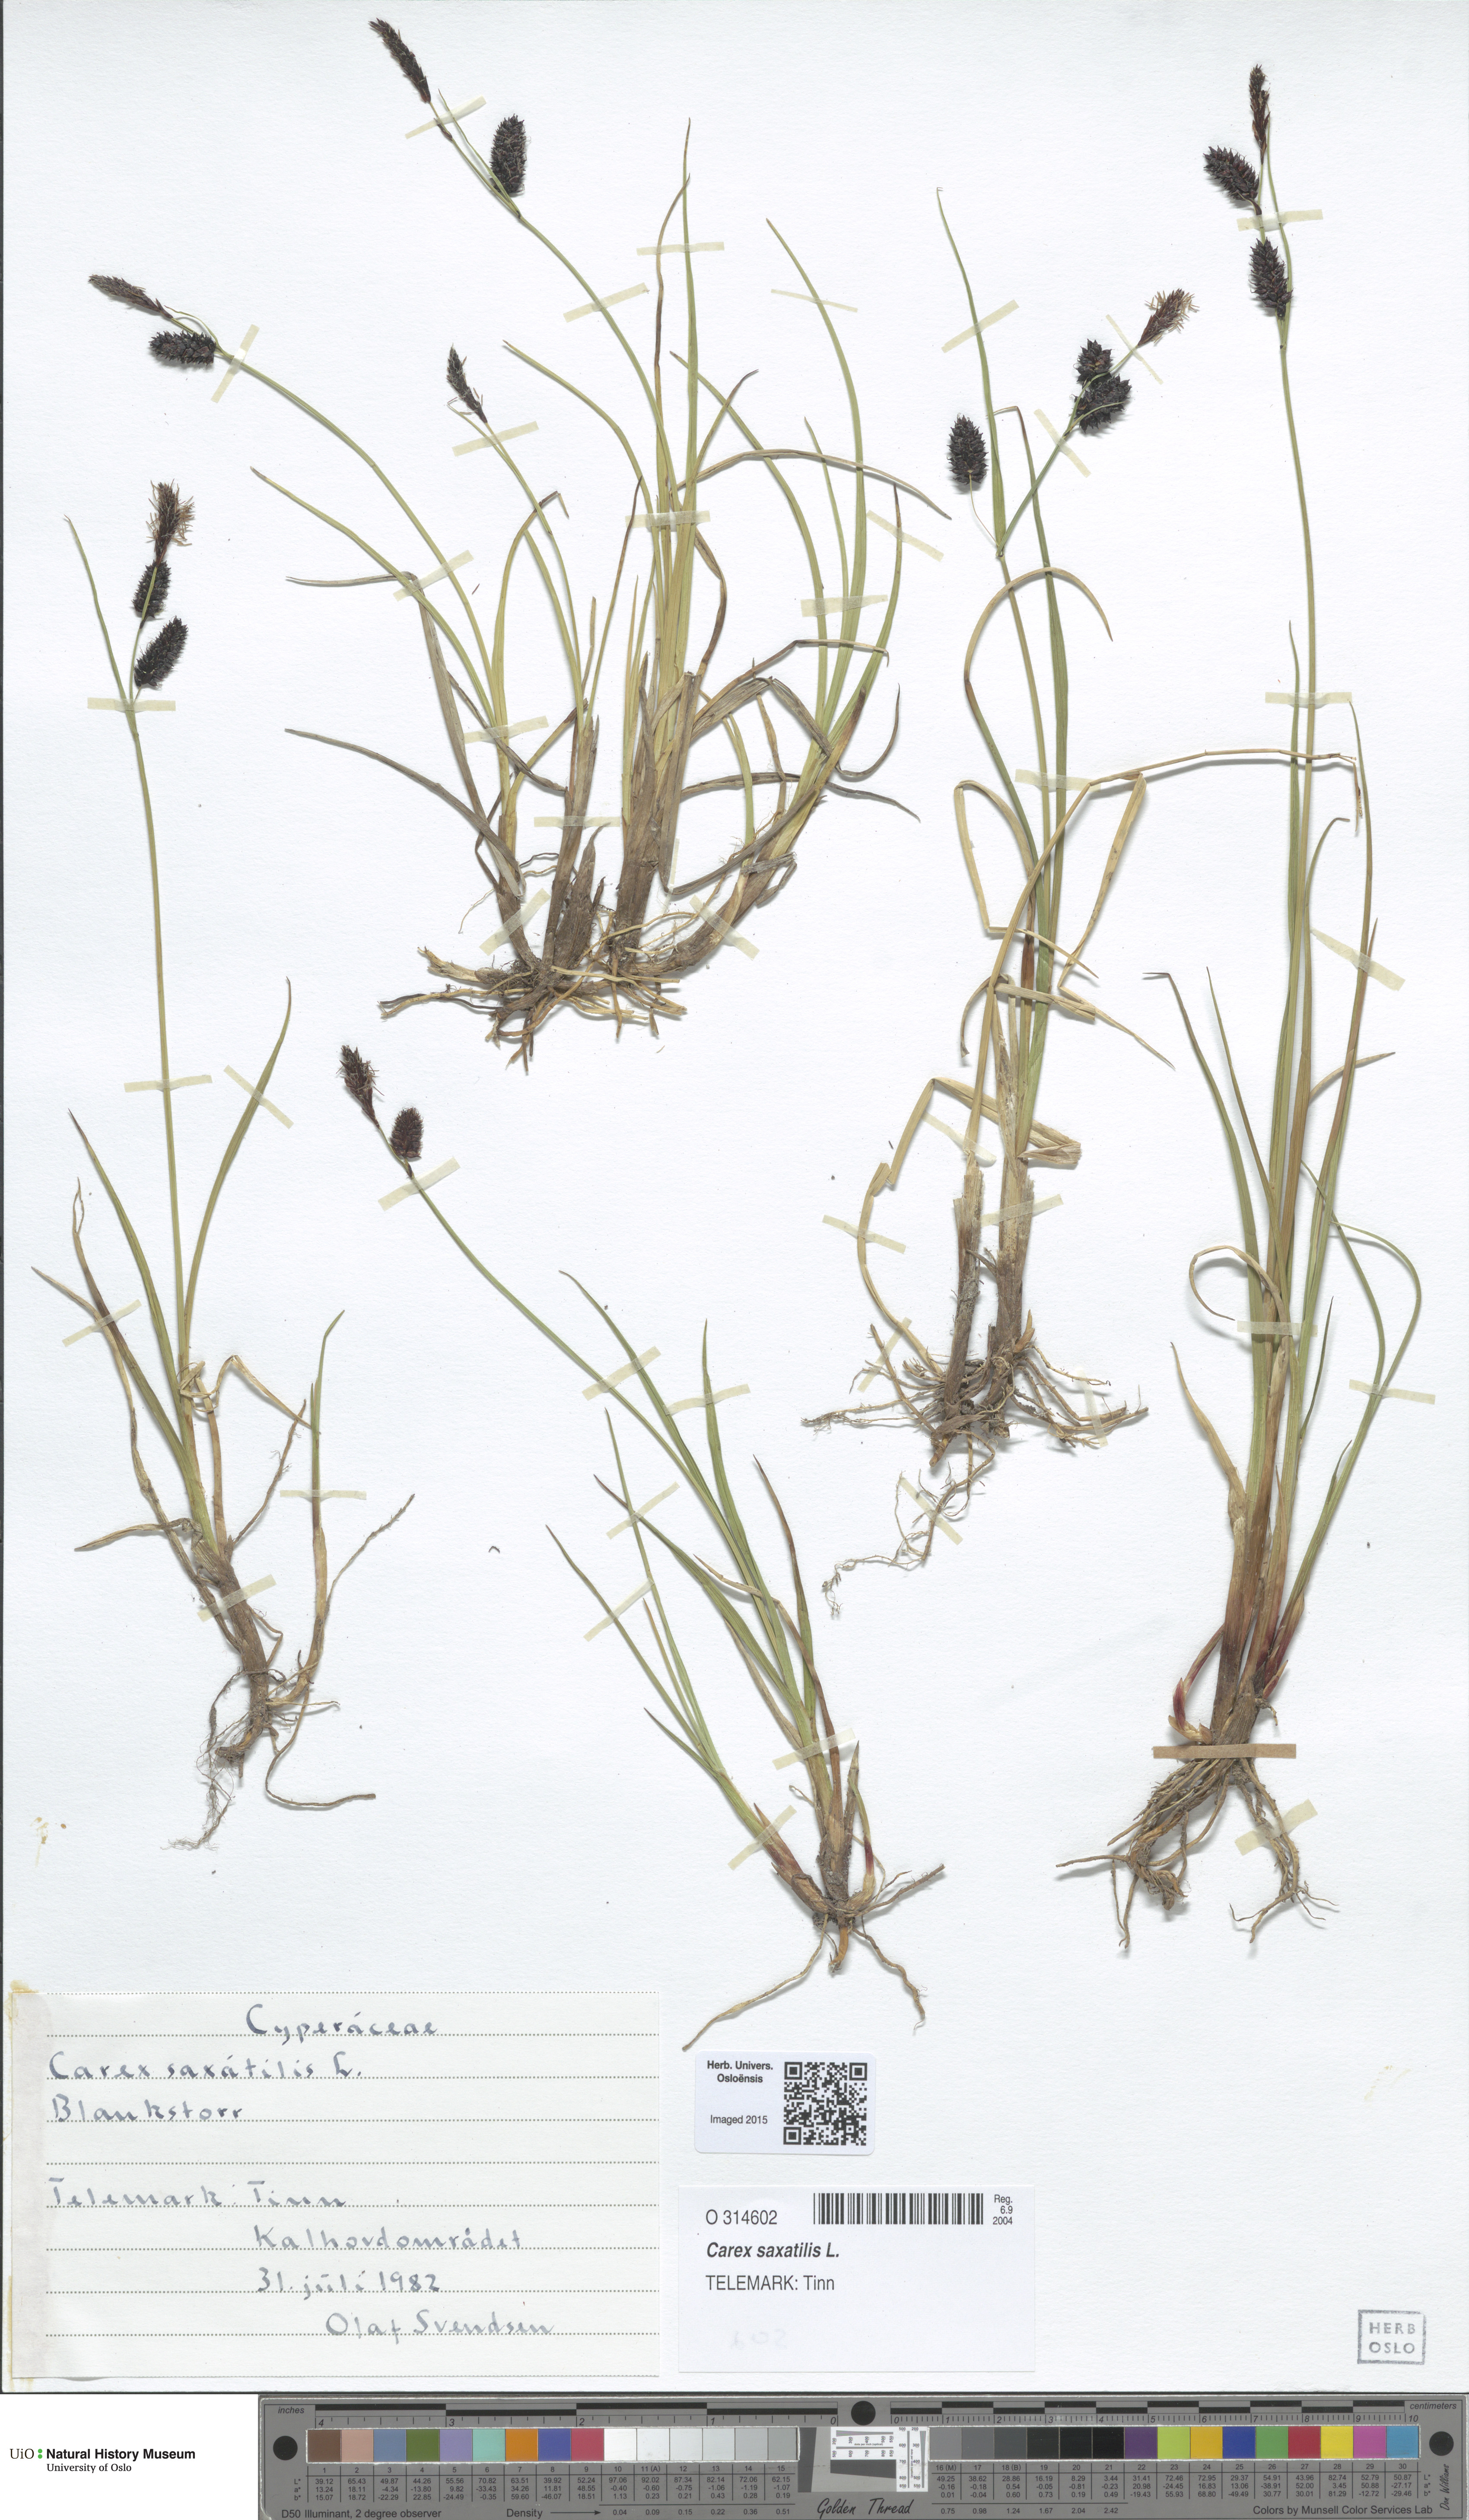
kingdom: Plantae
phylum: Tracheophyta
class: Liliopsida
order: Poales
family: Cyperaceae
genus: Carex
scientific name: Carex saxatilis
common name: Russet sedge
